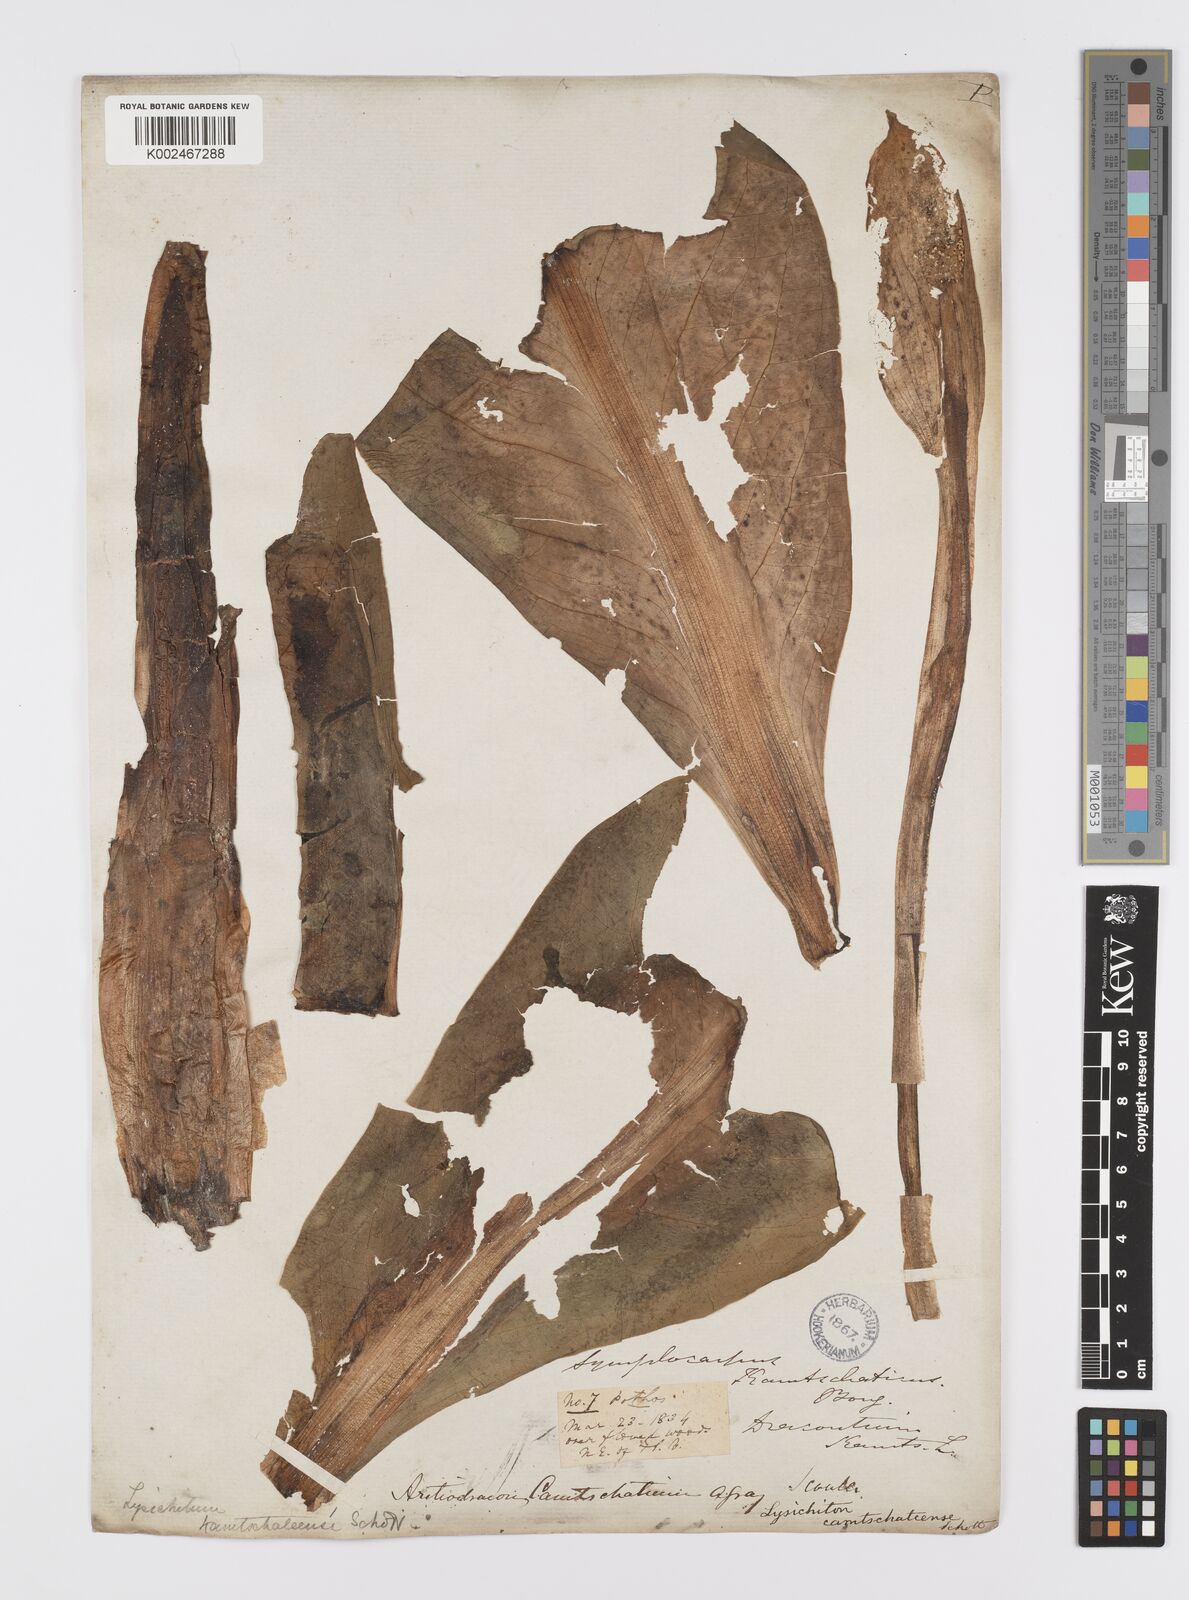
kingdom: Plantae
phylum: Tracheophyta
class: Liliopsida
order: Alismatales
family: Araceae
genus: Lysichiton
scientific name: Lysichiton americanus
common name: American skunk cabbage
